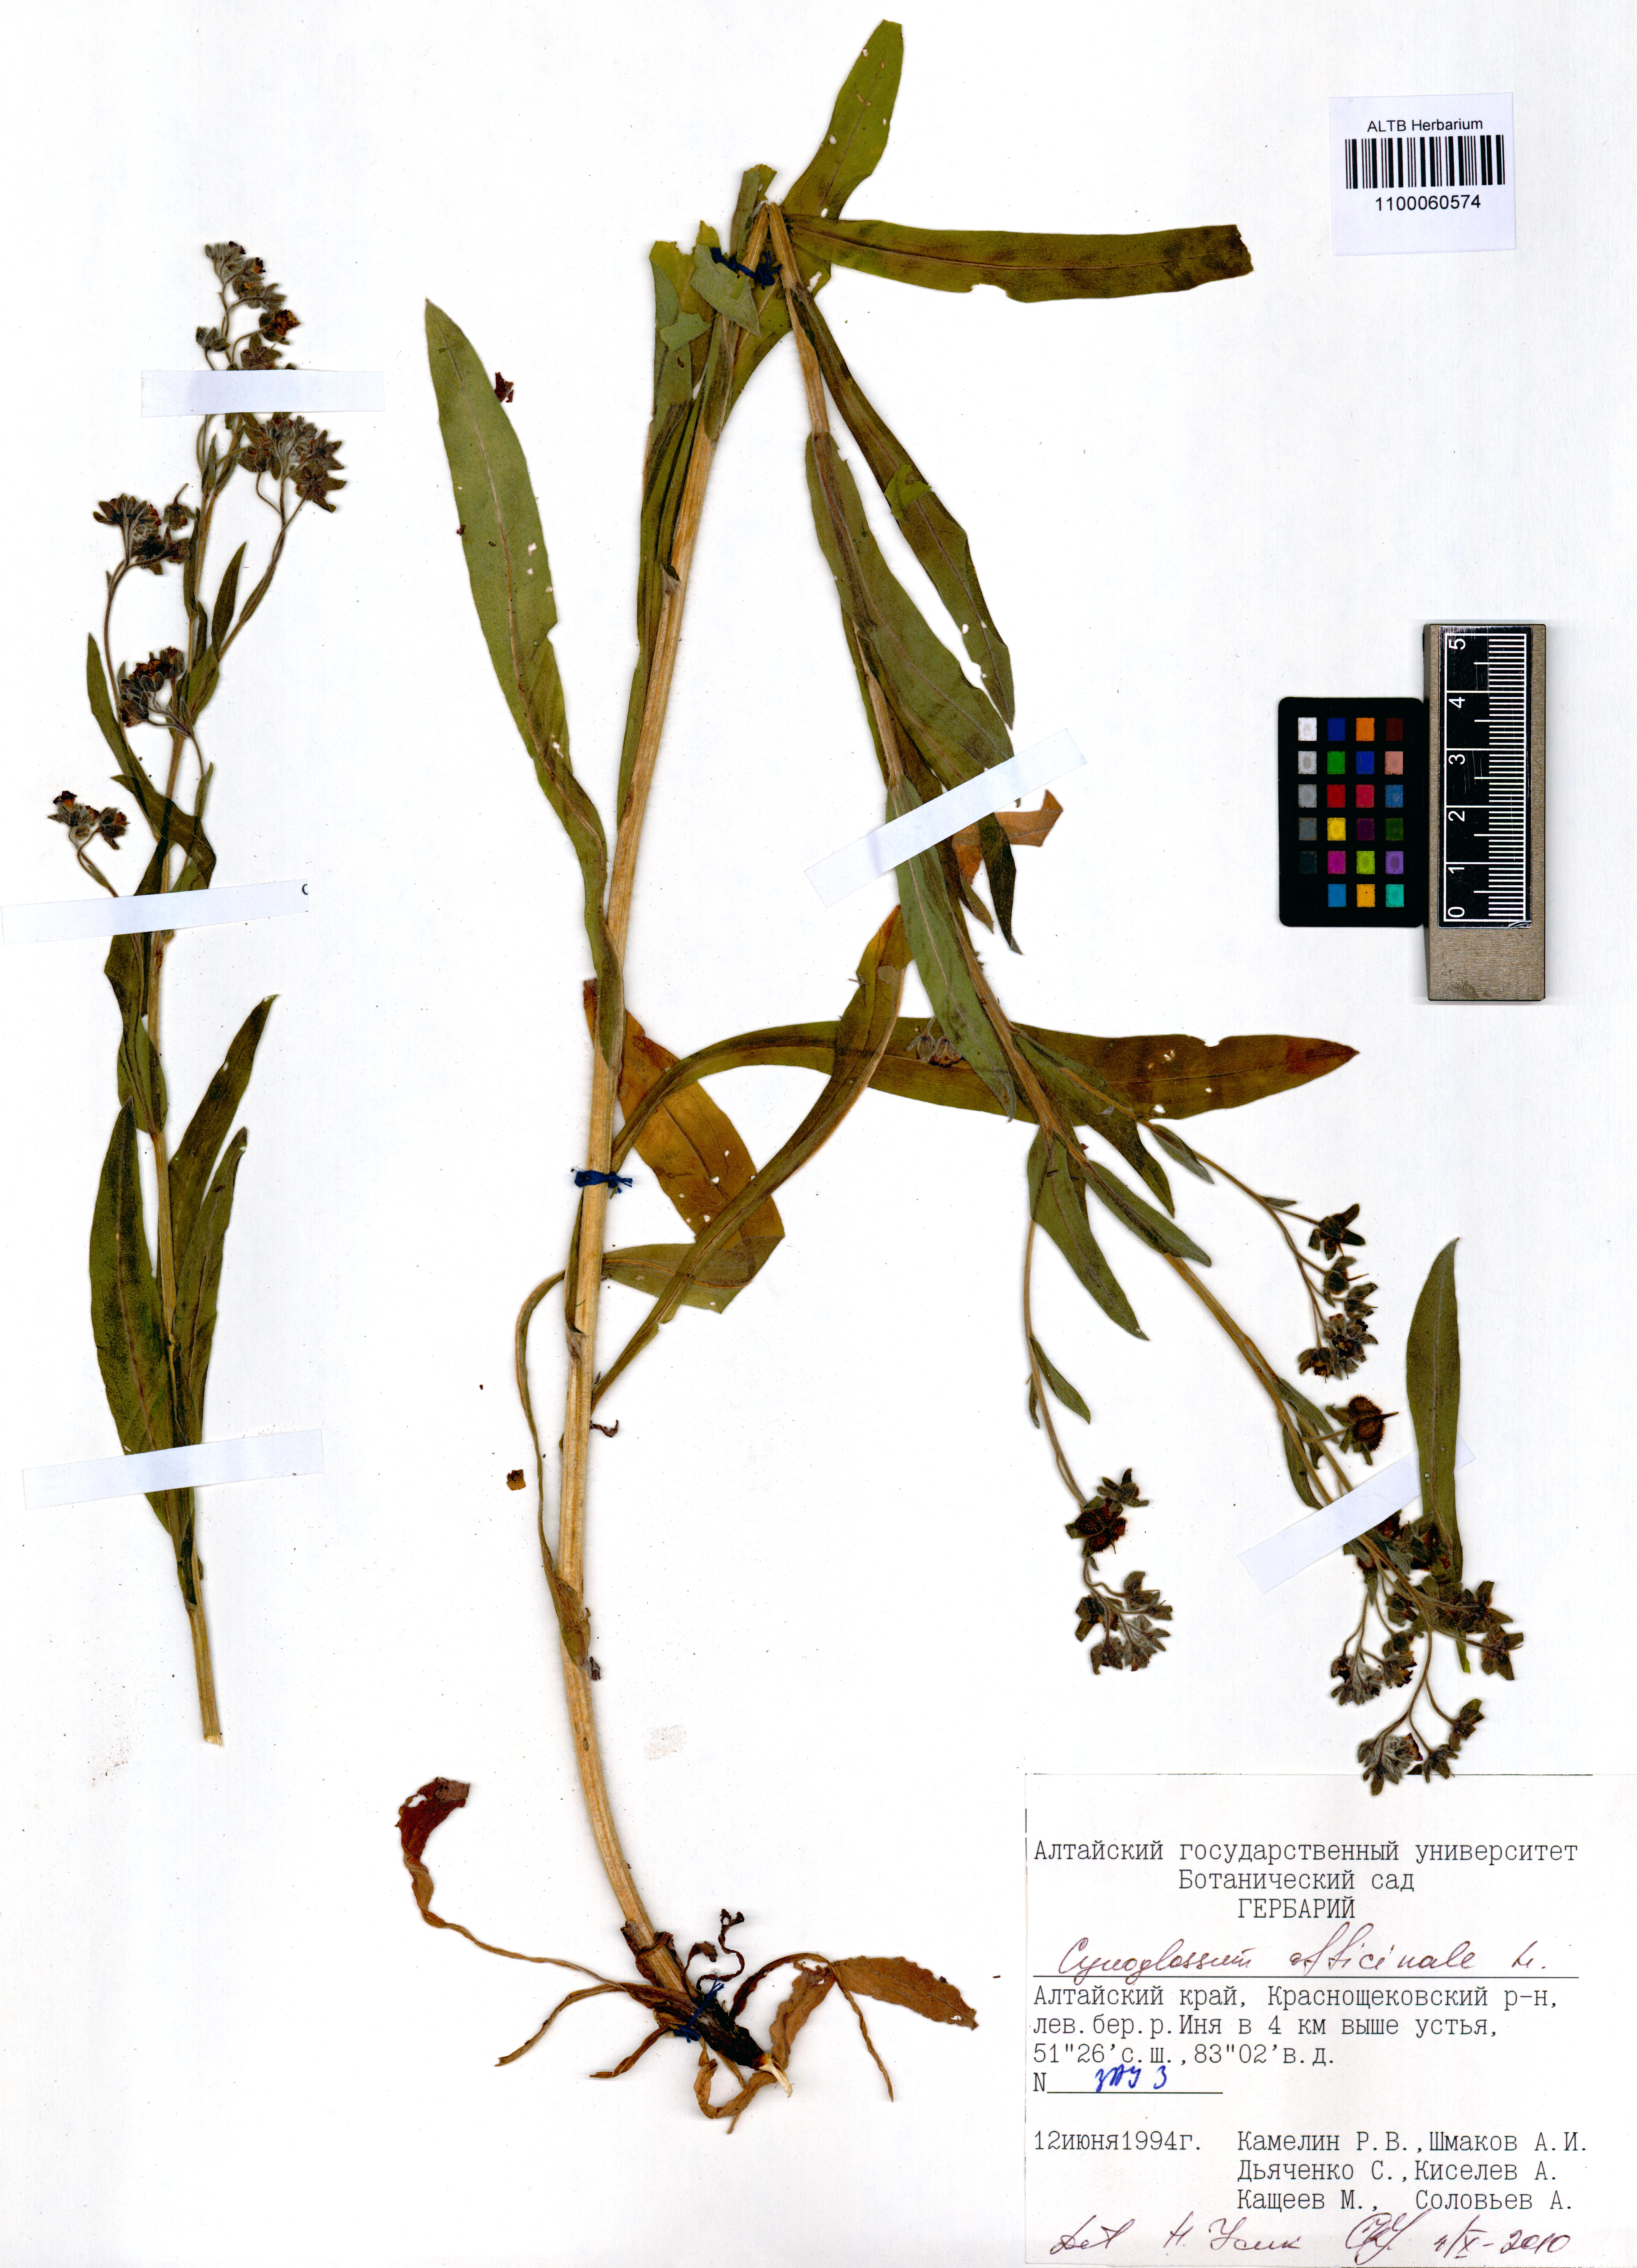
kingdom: Plantae
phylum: Tracheophyta
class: Magnoliopsida
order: Boraginales
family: Boraginaceae
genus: Cynoglossum
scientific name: Cynoglossum officinale
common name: Hound's-tongue
